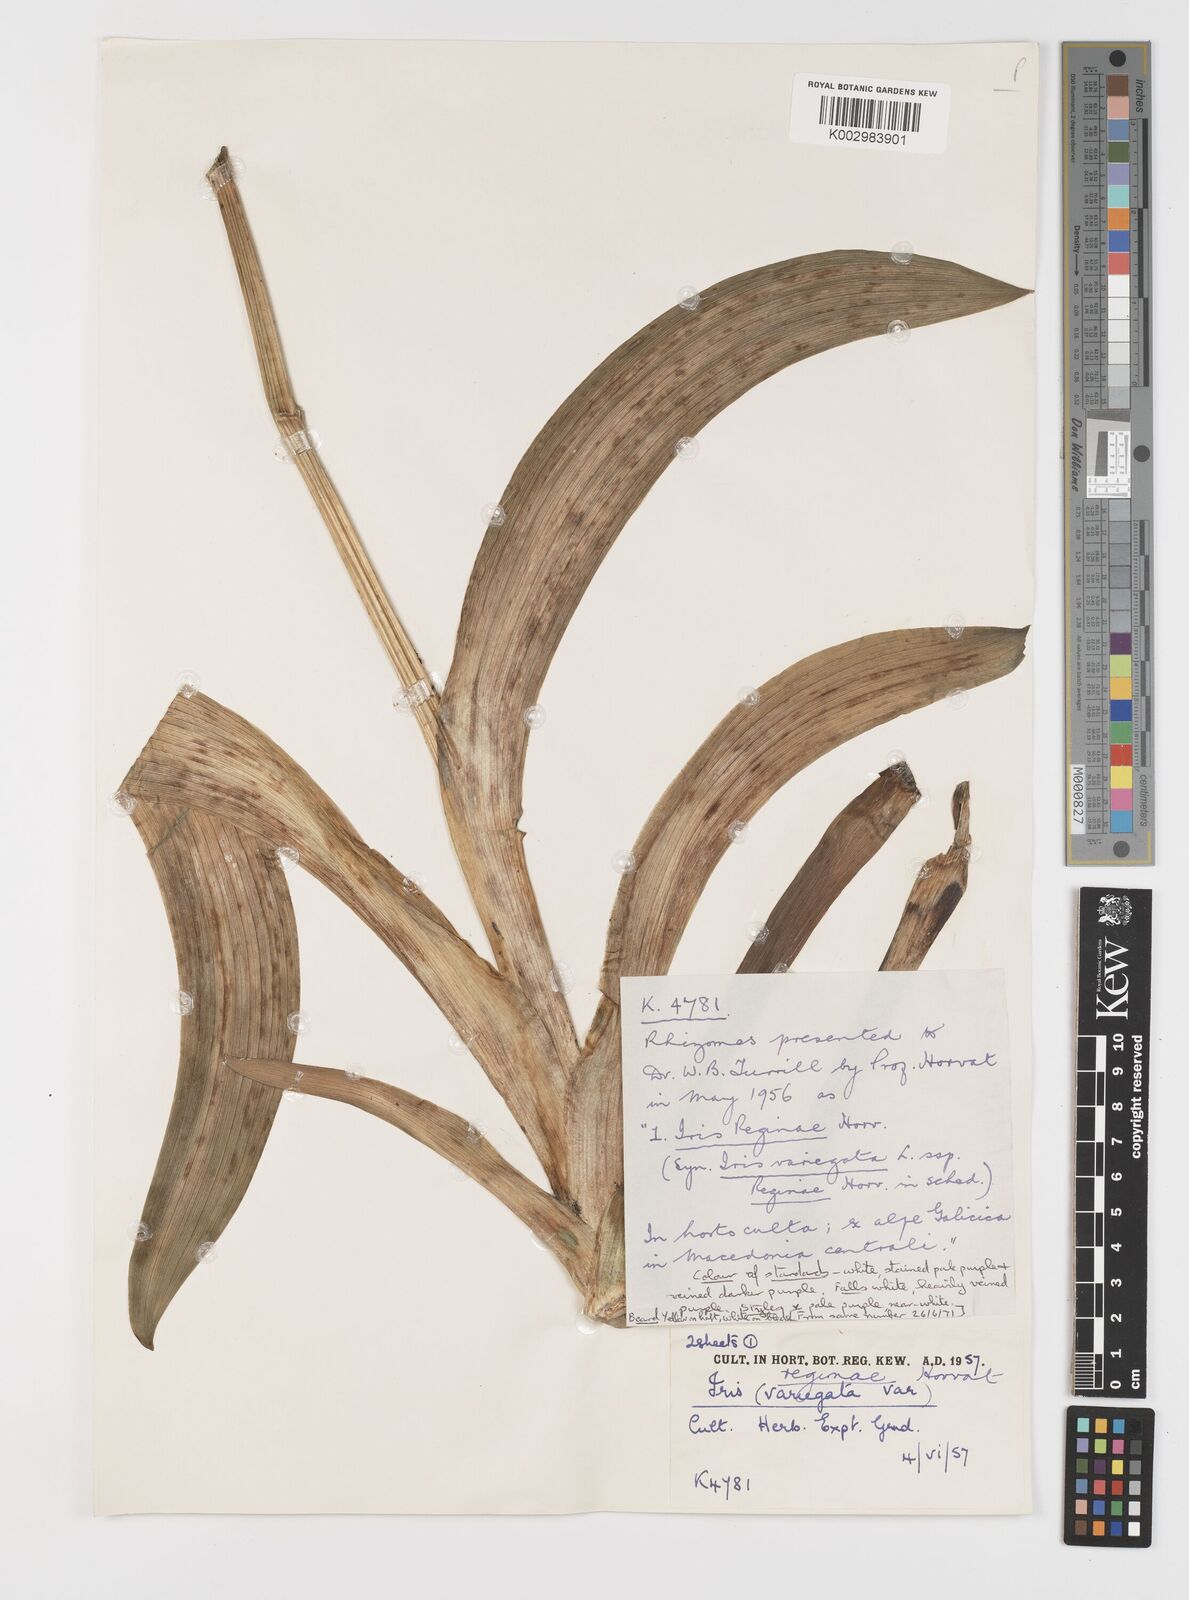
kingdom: Plantae
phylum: Tracheophyta
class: Liliopsida
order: Asparagales
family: Iridaceae
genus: Iris
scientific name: Iris variegata
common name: Hungarian iris
